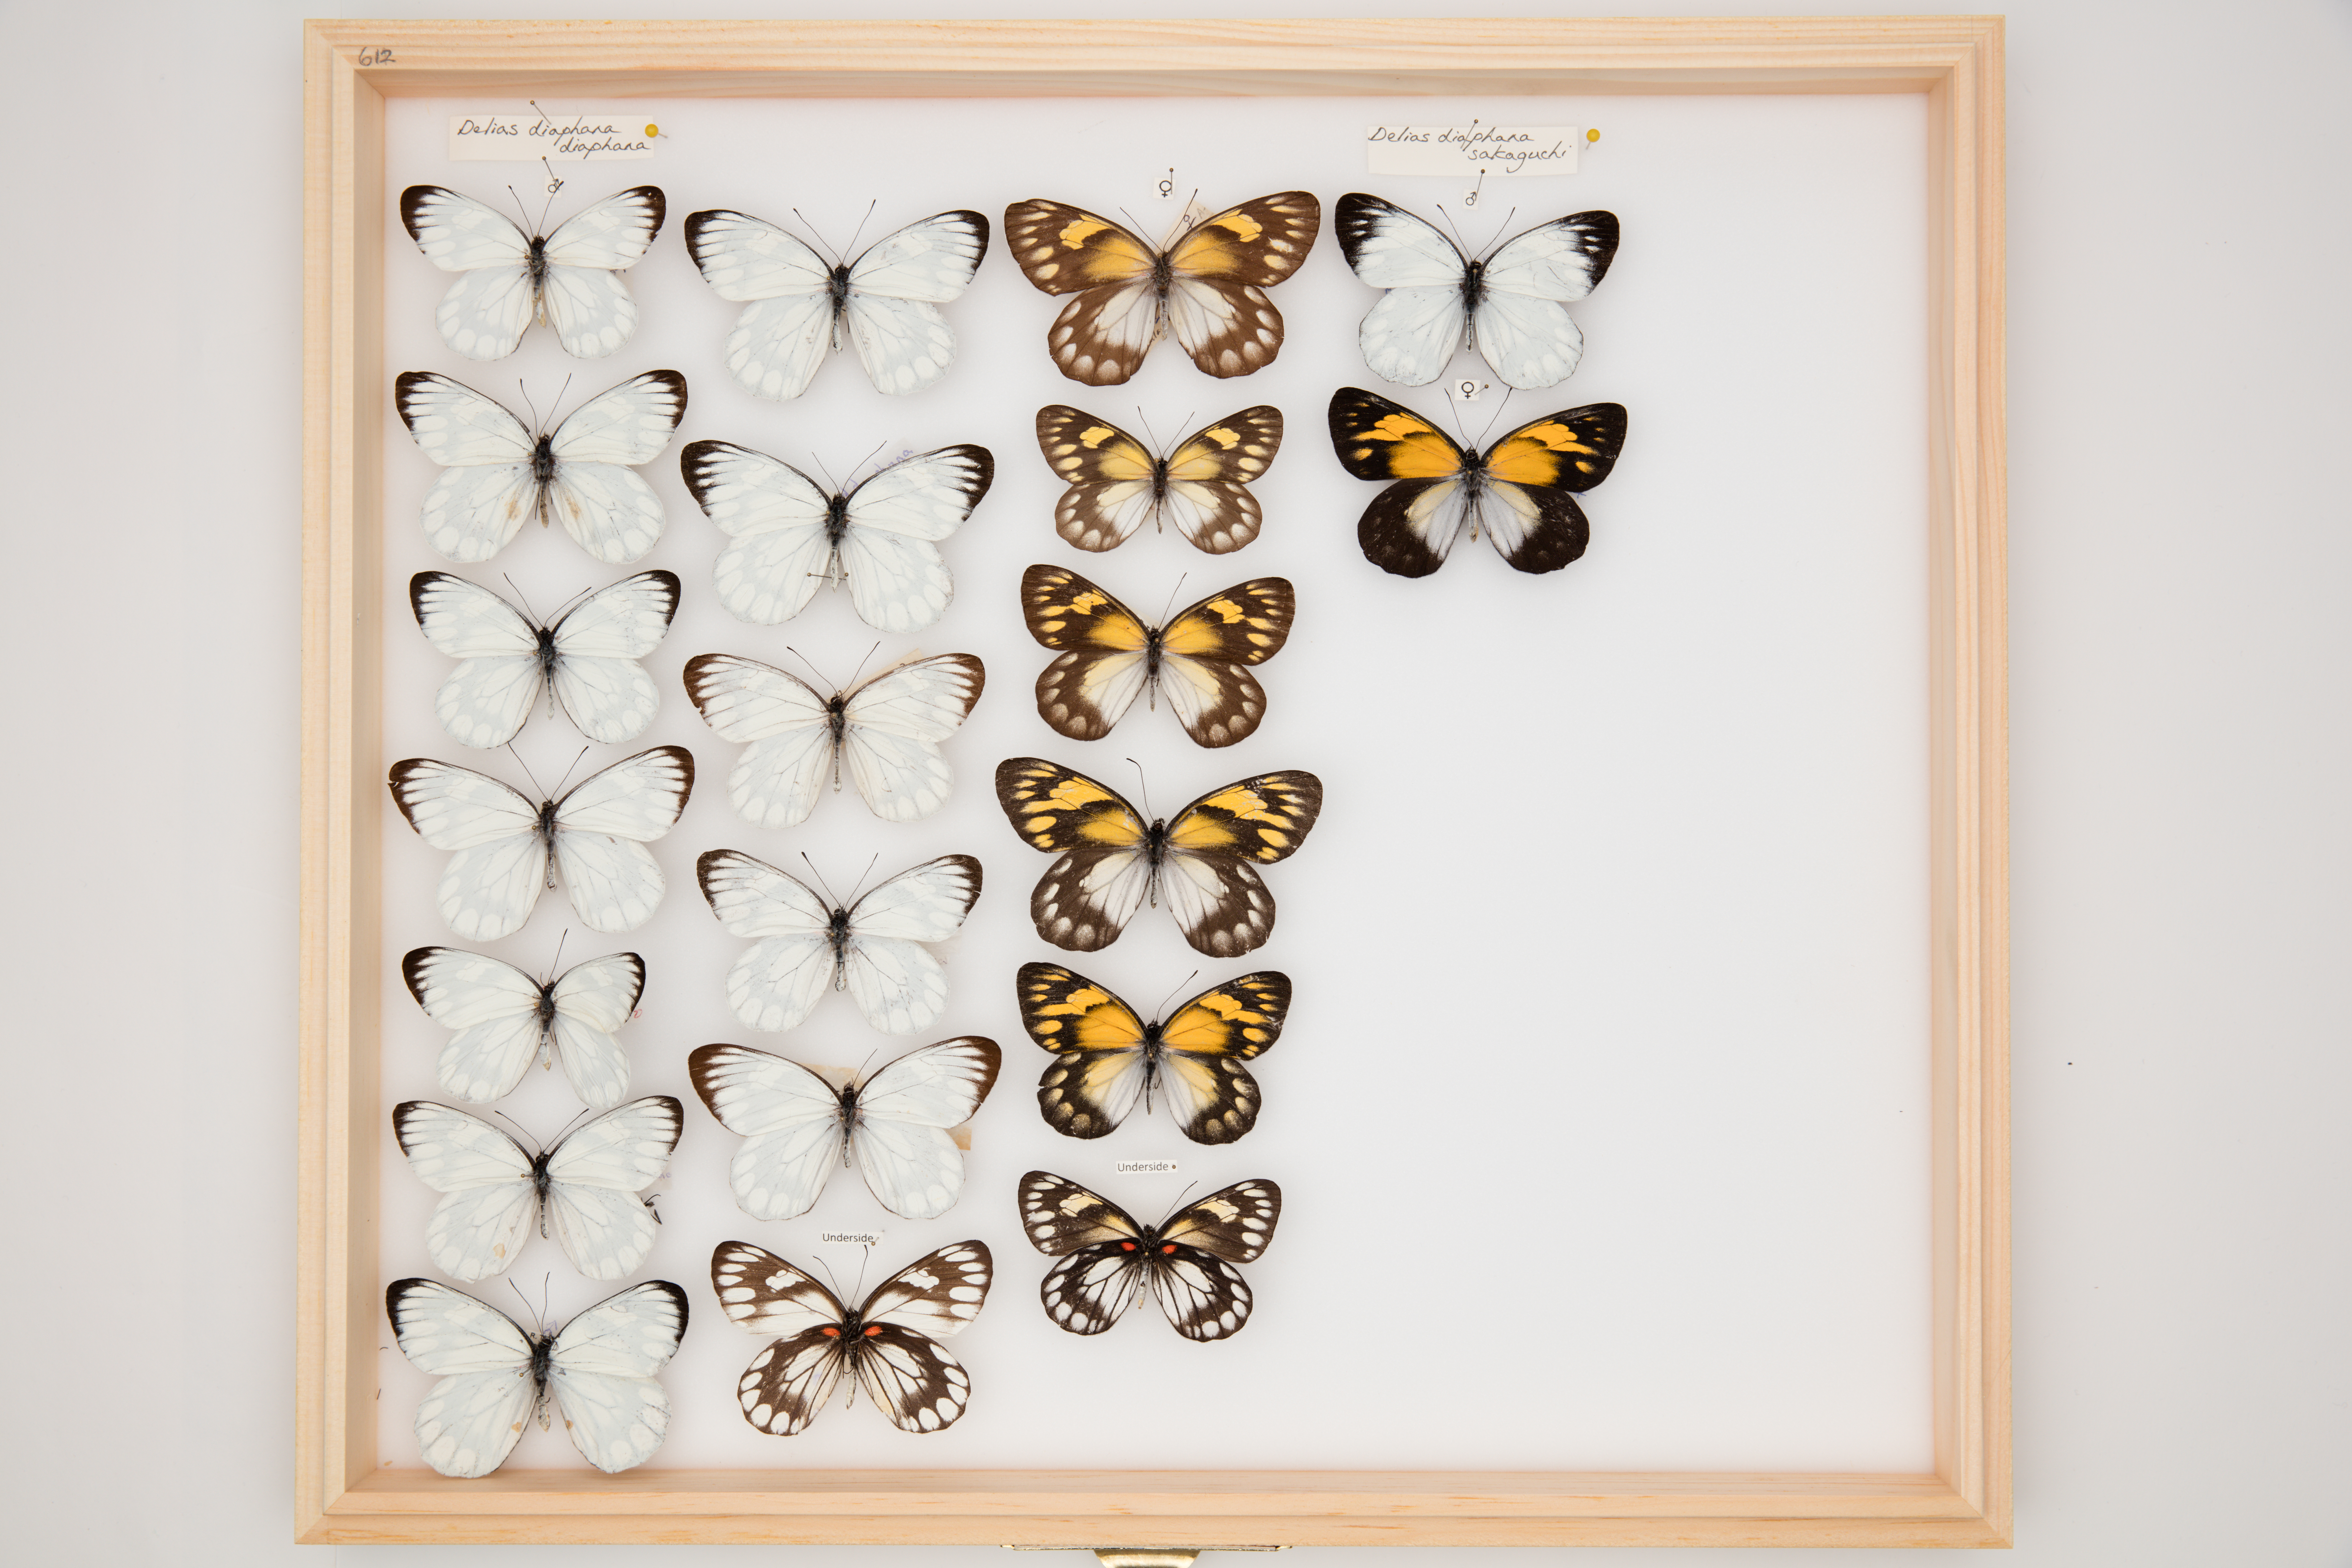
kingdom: Animalia
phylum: Arthropoda
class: Insecta
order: Lepidoptera
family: Pieridae
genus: Delias
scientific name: Delias diaphana
